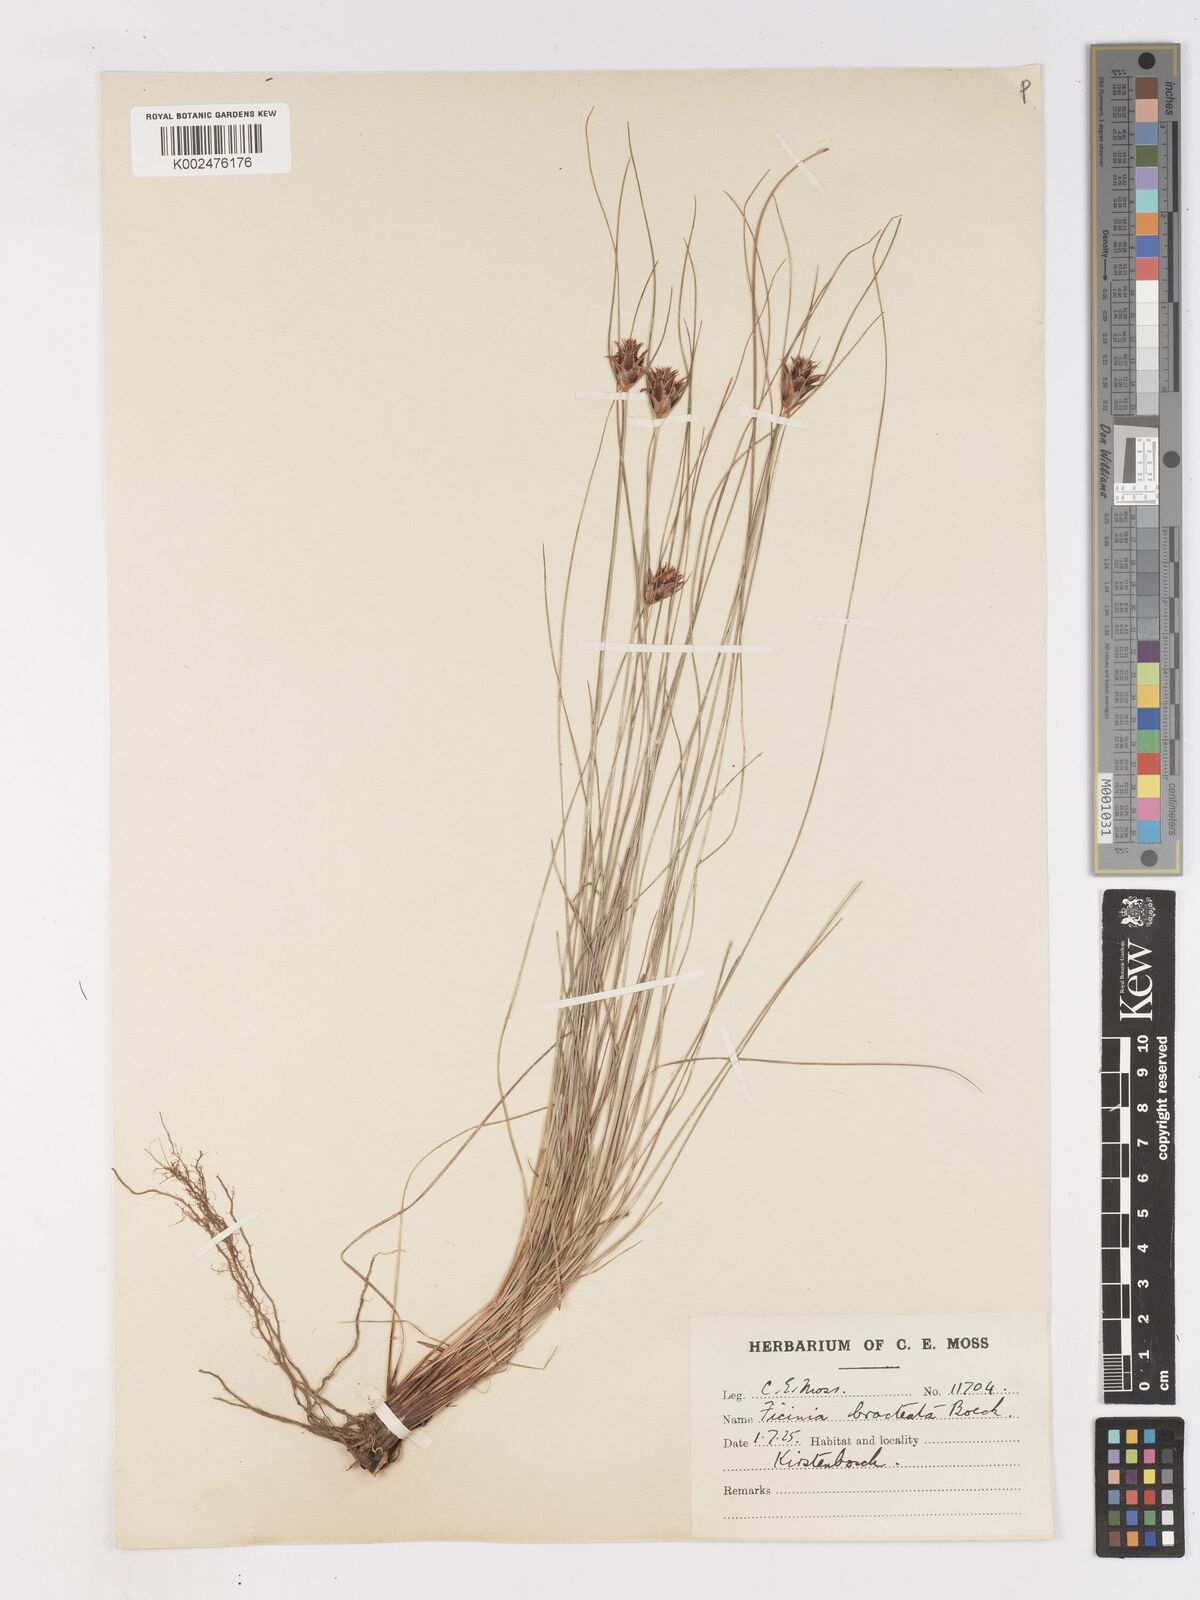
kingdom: Plantae
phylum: Tracheophyta
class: Liliopsida
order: Poales
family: Cyperaceae
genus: Ficinia
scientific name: Ficinia nigrescens
